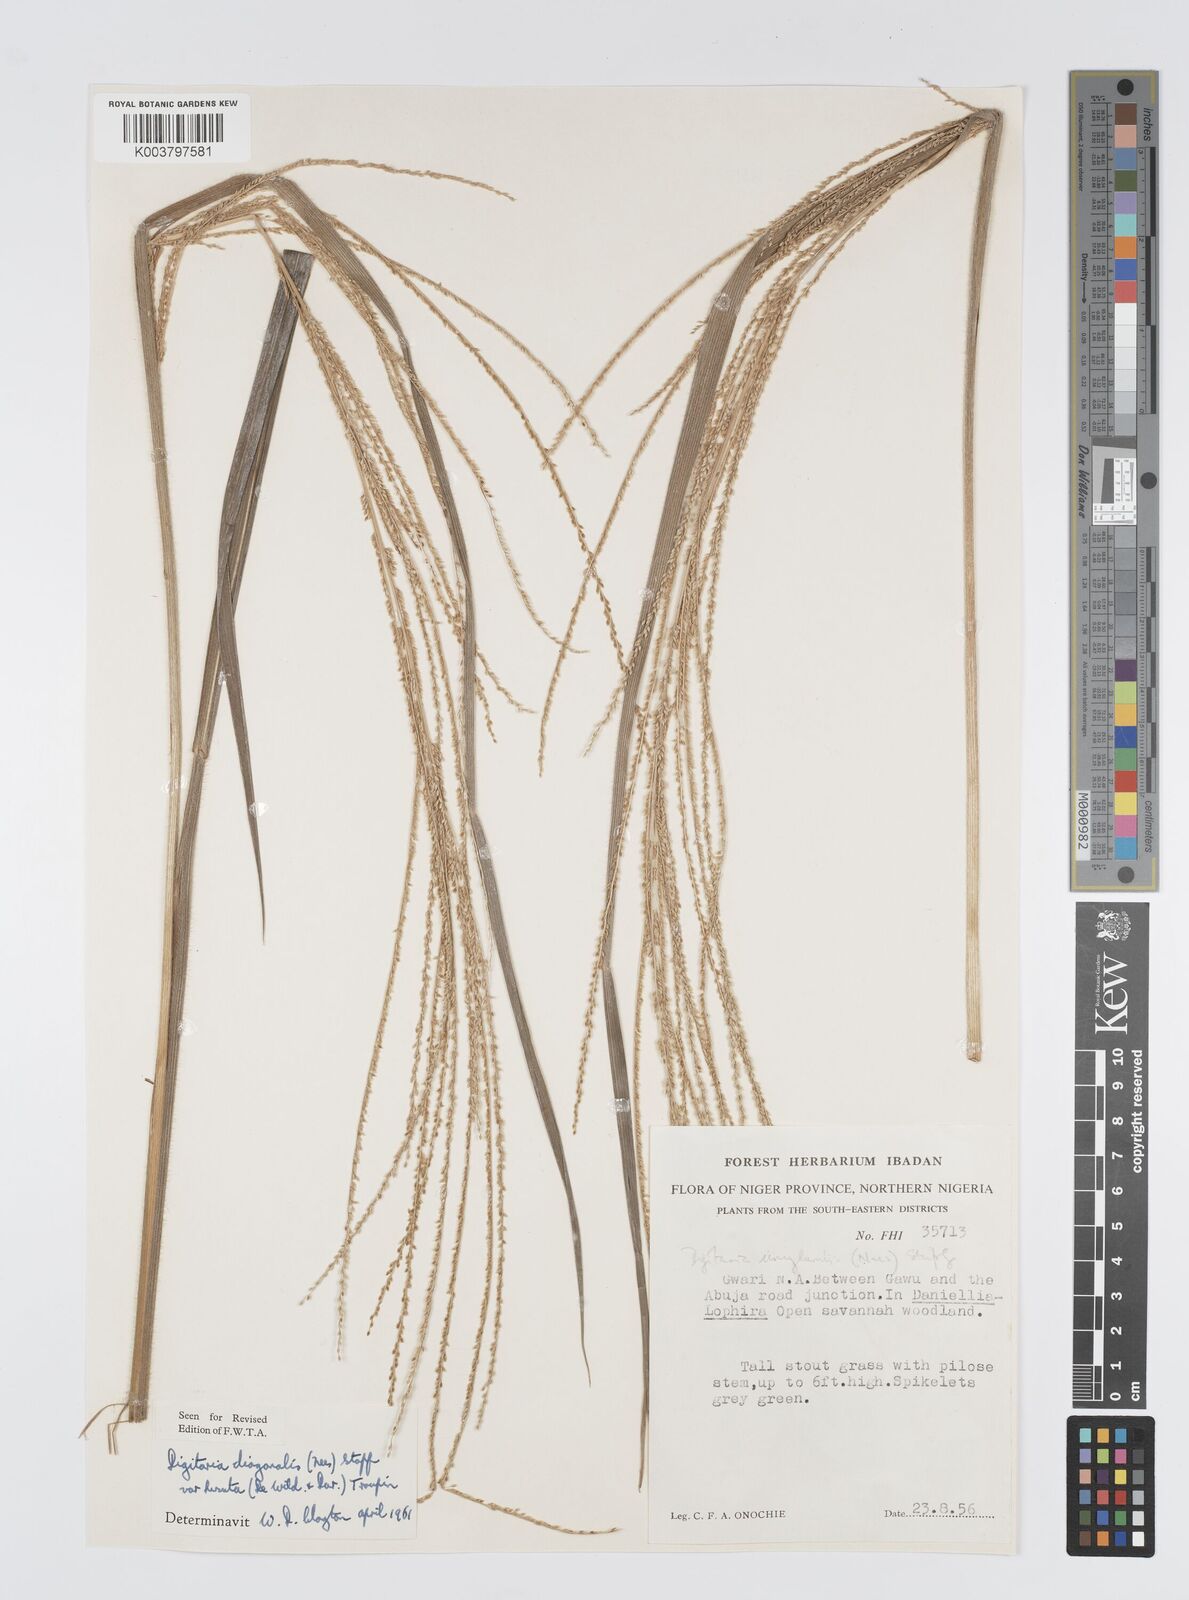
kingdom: Plantae
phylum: Tracheophyta
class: Liliopsida
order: Poales
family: Poaceae
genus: Digitaria
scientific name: Digitaria diagonalis
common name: Brown-seed finger grass
